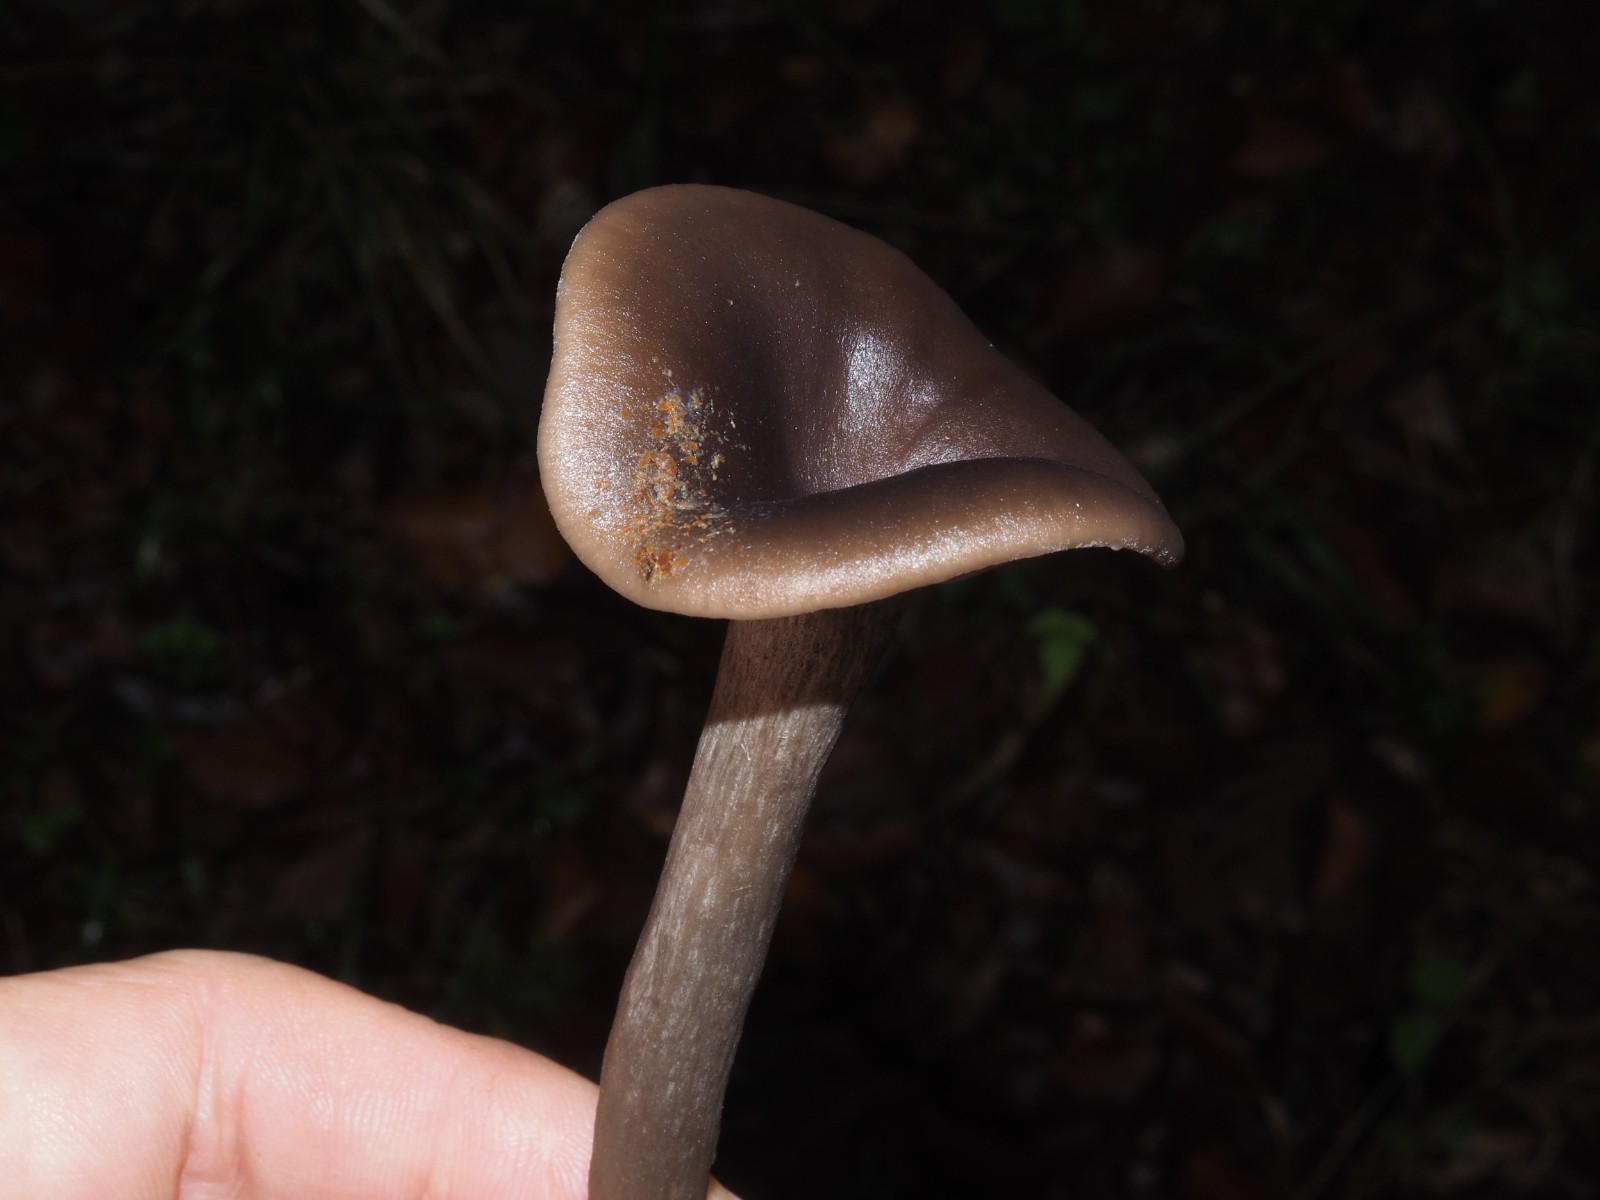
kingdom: Fungi
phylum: Basidiomycota
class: Agaricomycetes
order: Agaricales
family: Pseudoclitocybaceae
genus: Pseudoclitocybe
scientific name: Pseudoclitocybe cyathiformis
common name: almindelig bægertragthat
